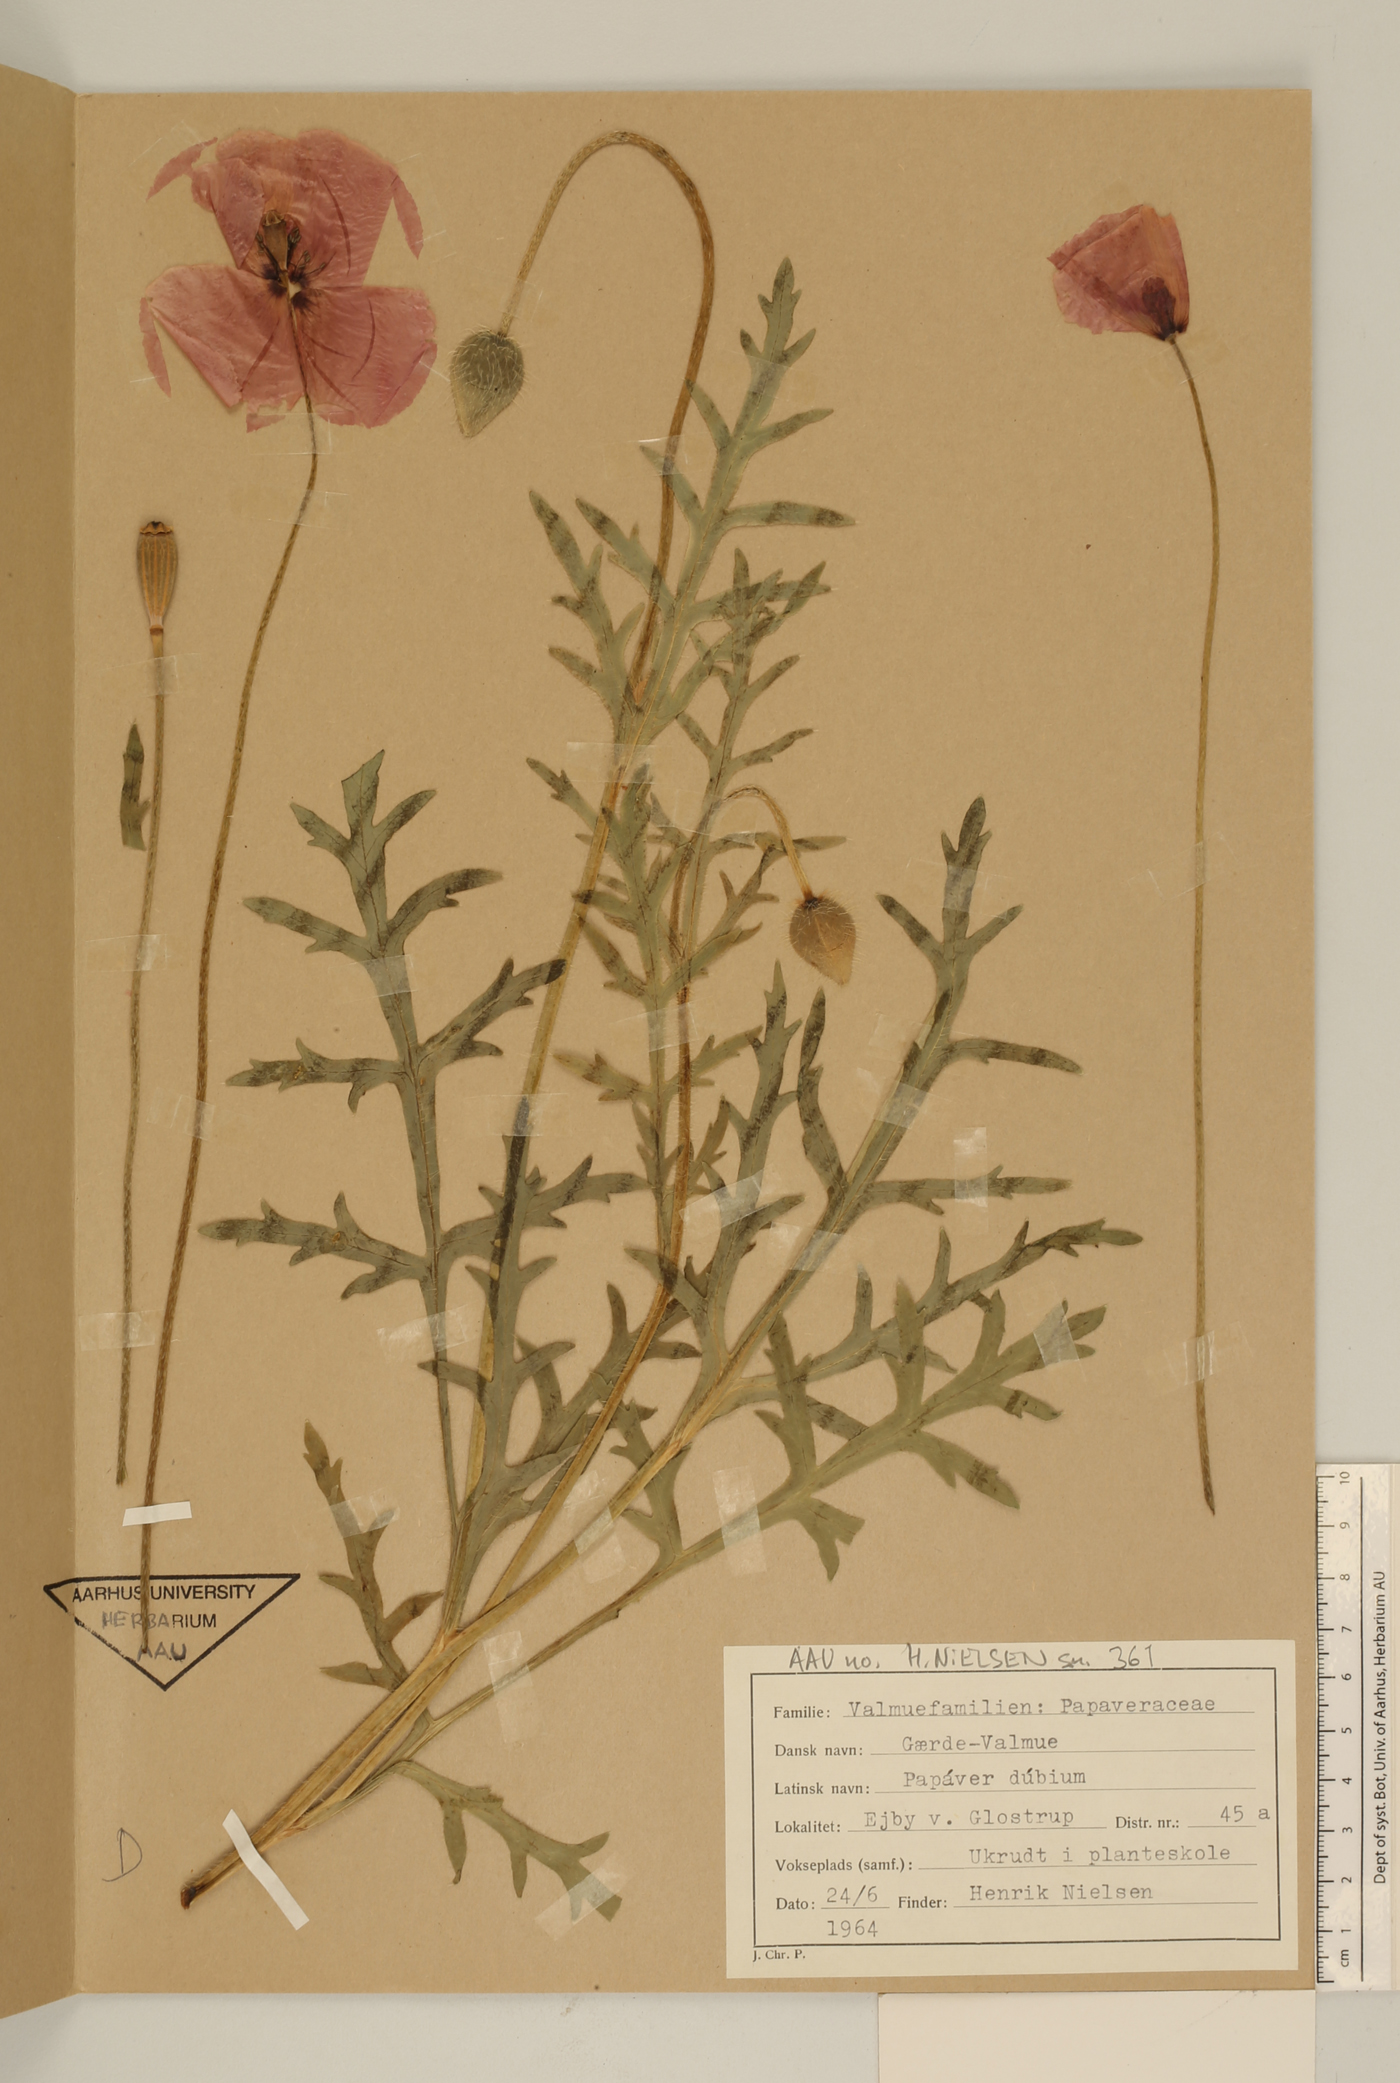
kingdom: Plantae
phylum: Tracheophyta
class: Magnoliopsida
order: Ranunculales
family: Papaveraceae
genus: Papaver
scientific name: Papaver dubium
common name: Long-headed poppy
